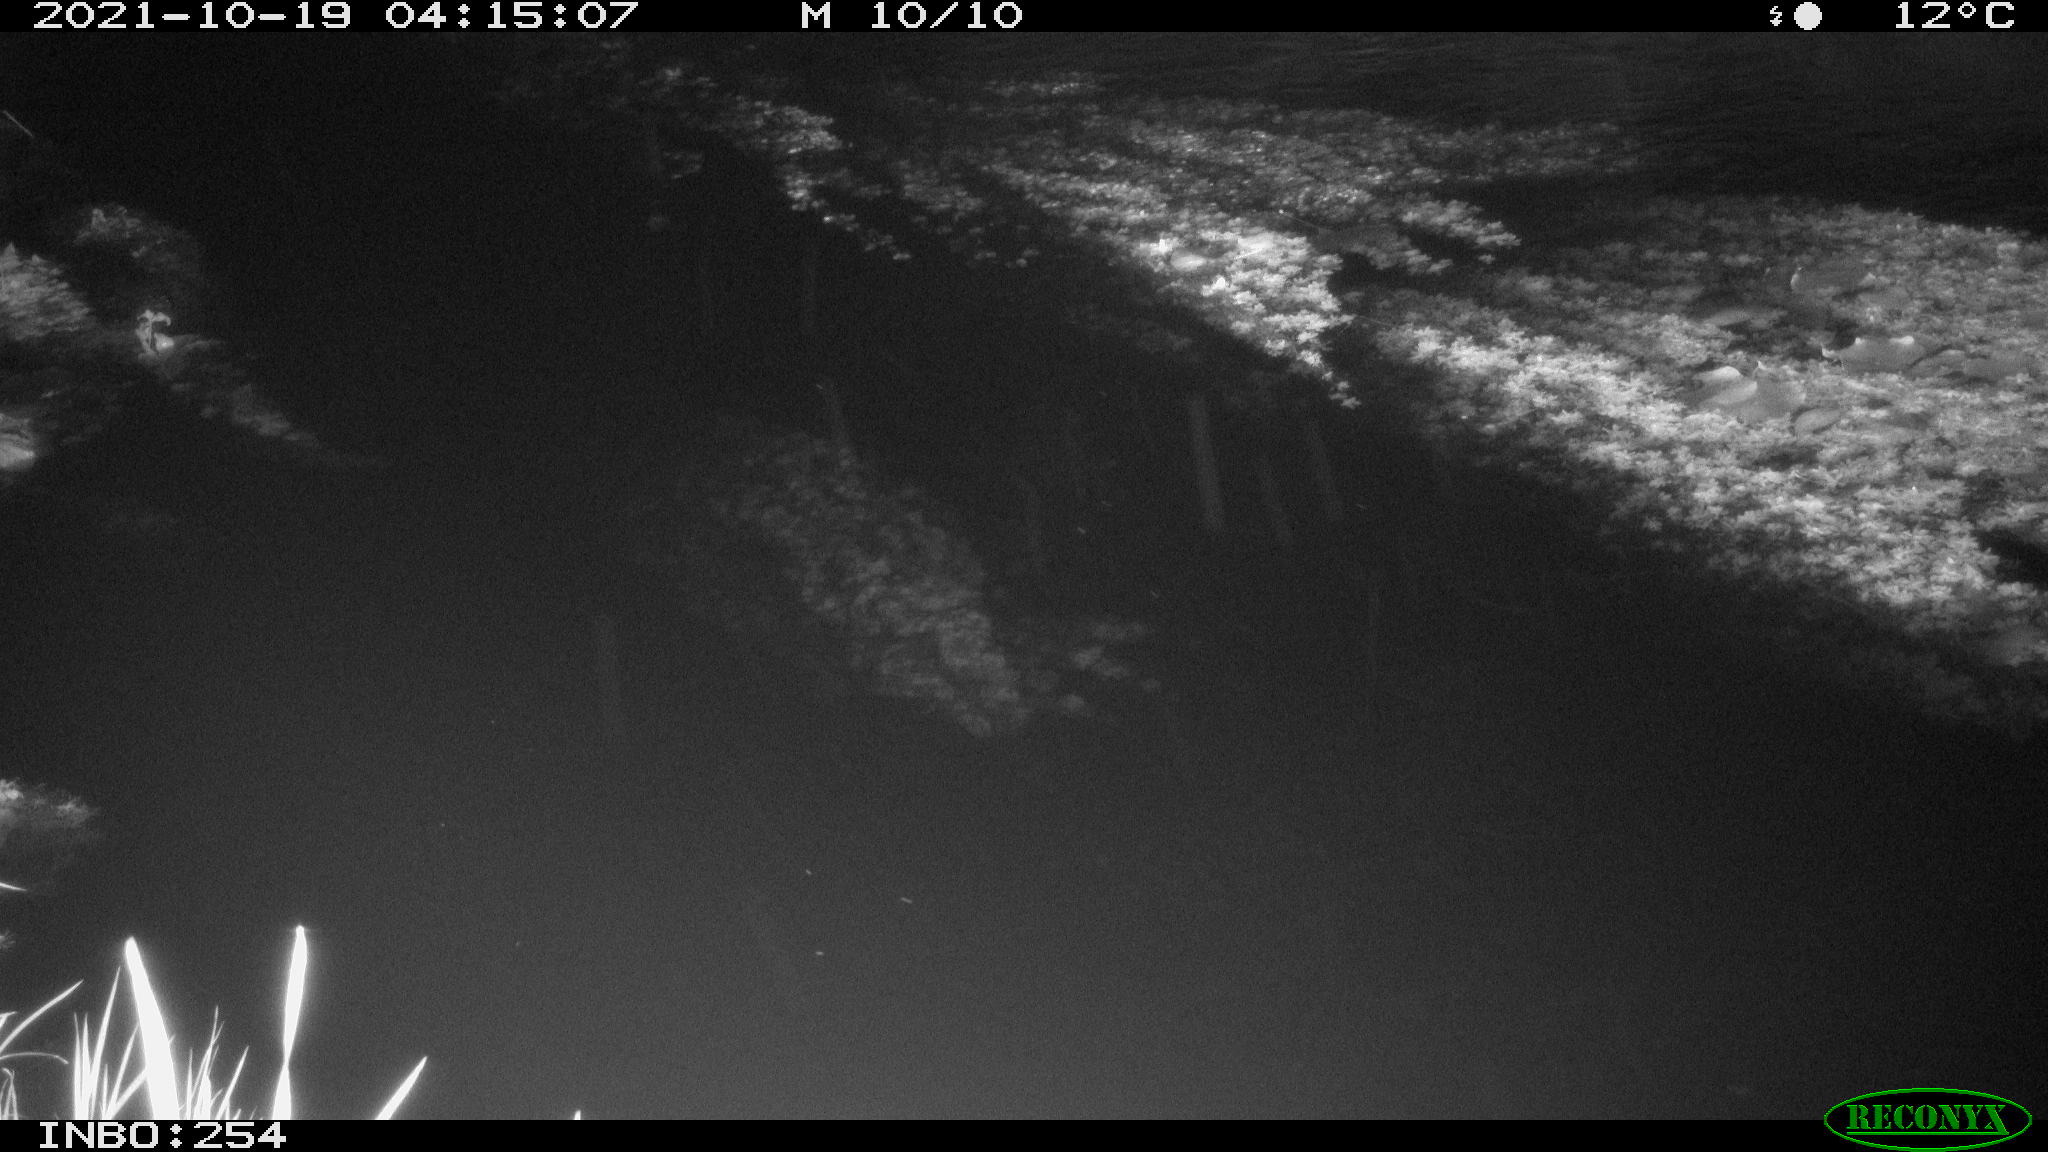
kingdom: Animalia
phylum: Chordata
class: Mammalia
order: Rodentia
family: Muridae
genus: Rattus
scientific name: Rattus norvegicus
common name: Brown rat
